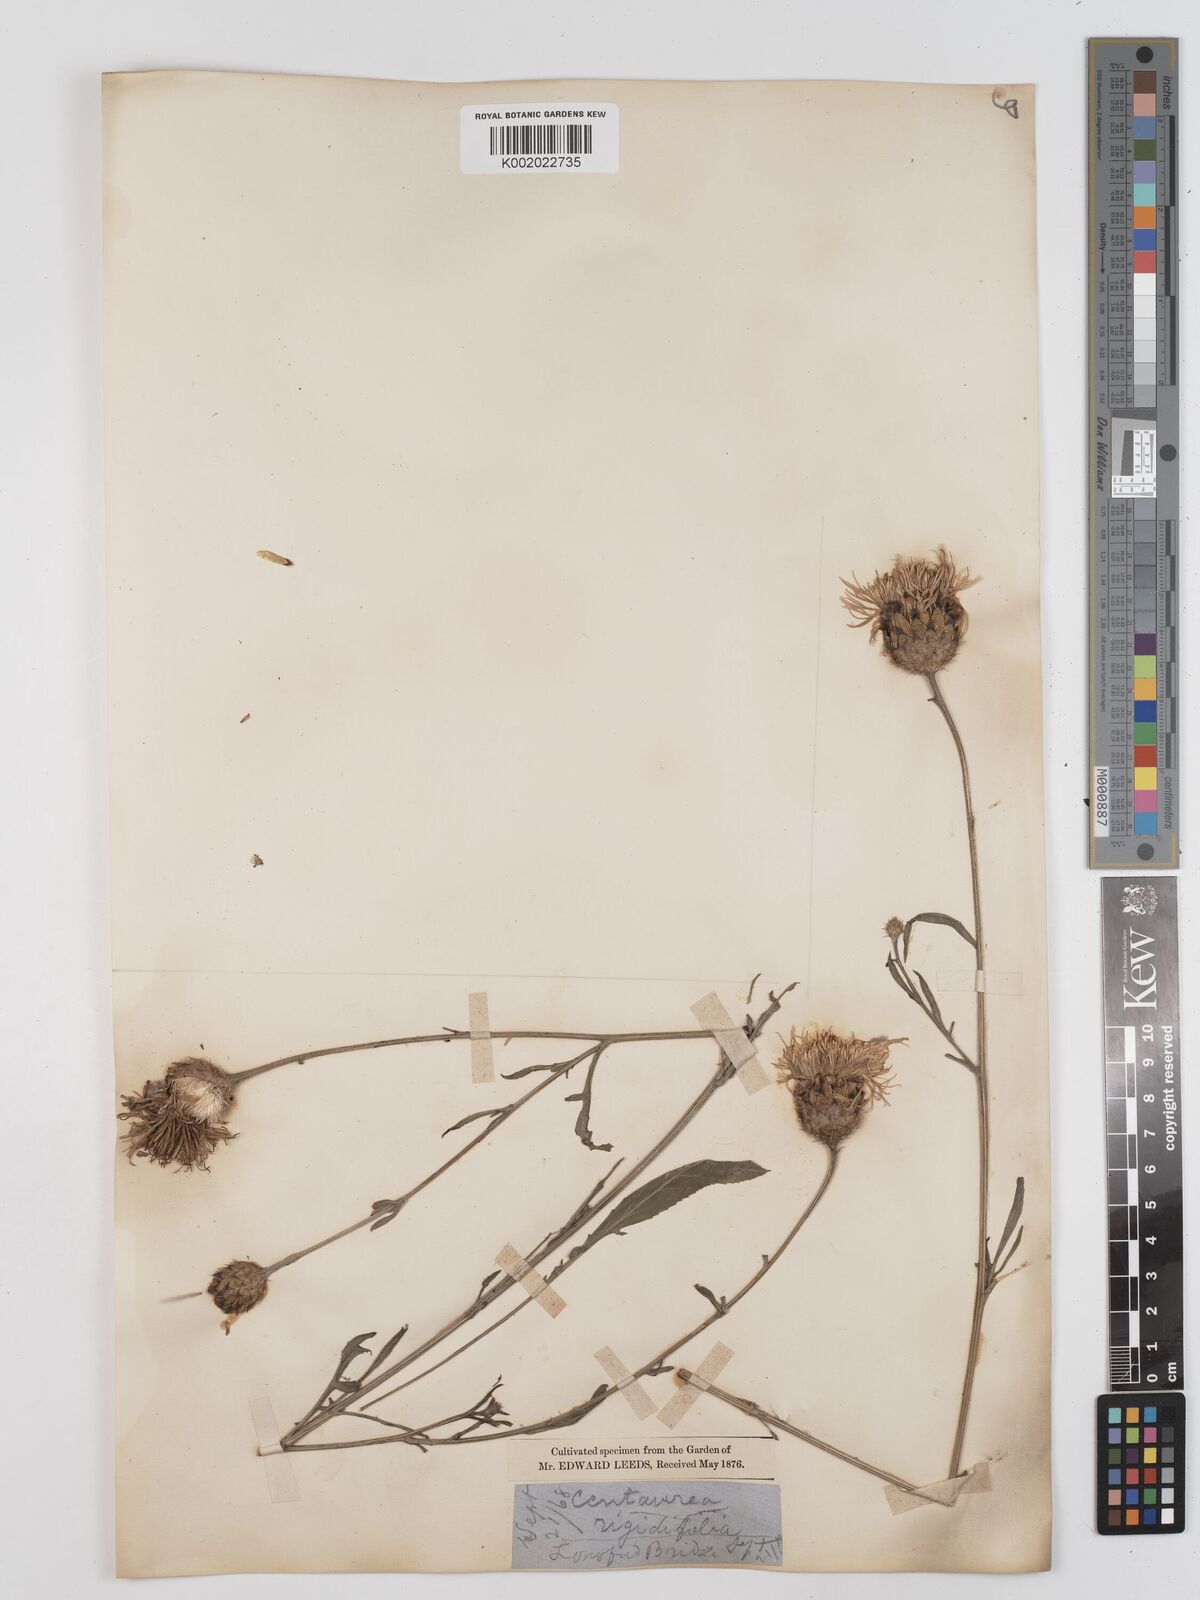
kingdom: Plantae
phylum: Tracheophyta
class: Magnoliopsida
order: Asterales
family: Asteraceae
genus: Centaurea
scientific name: Centaurea
